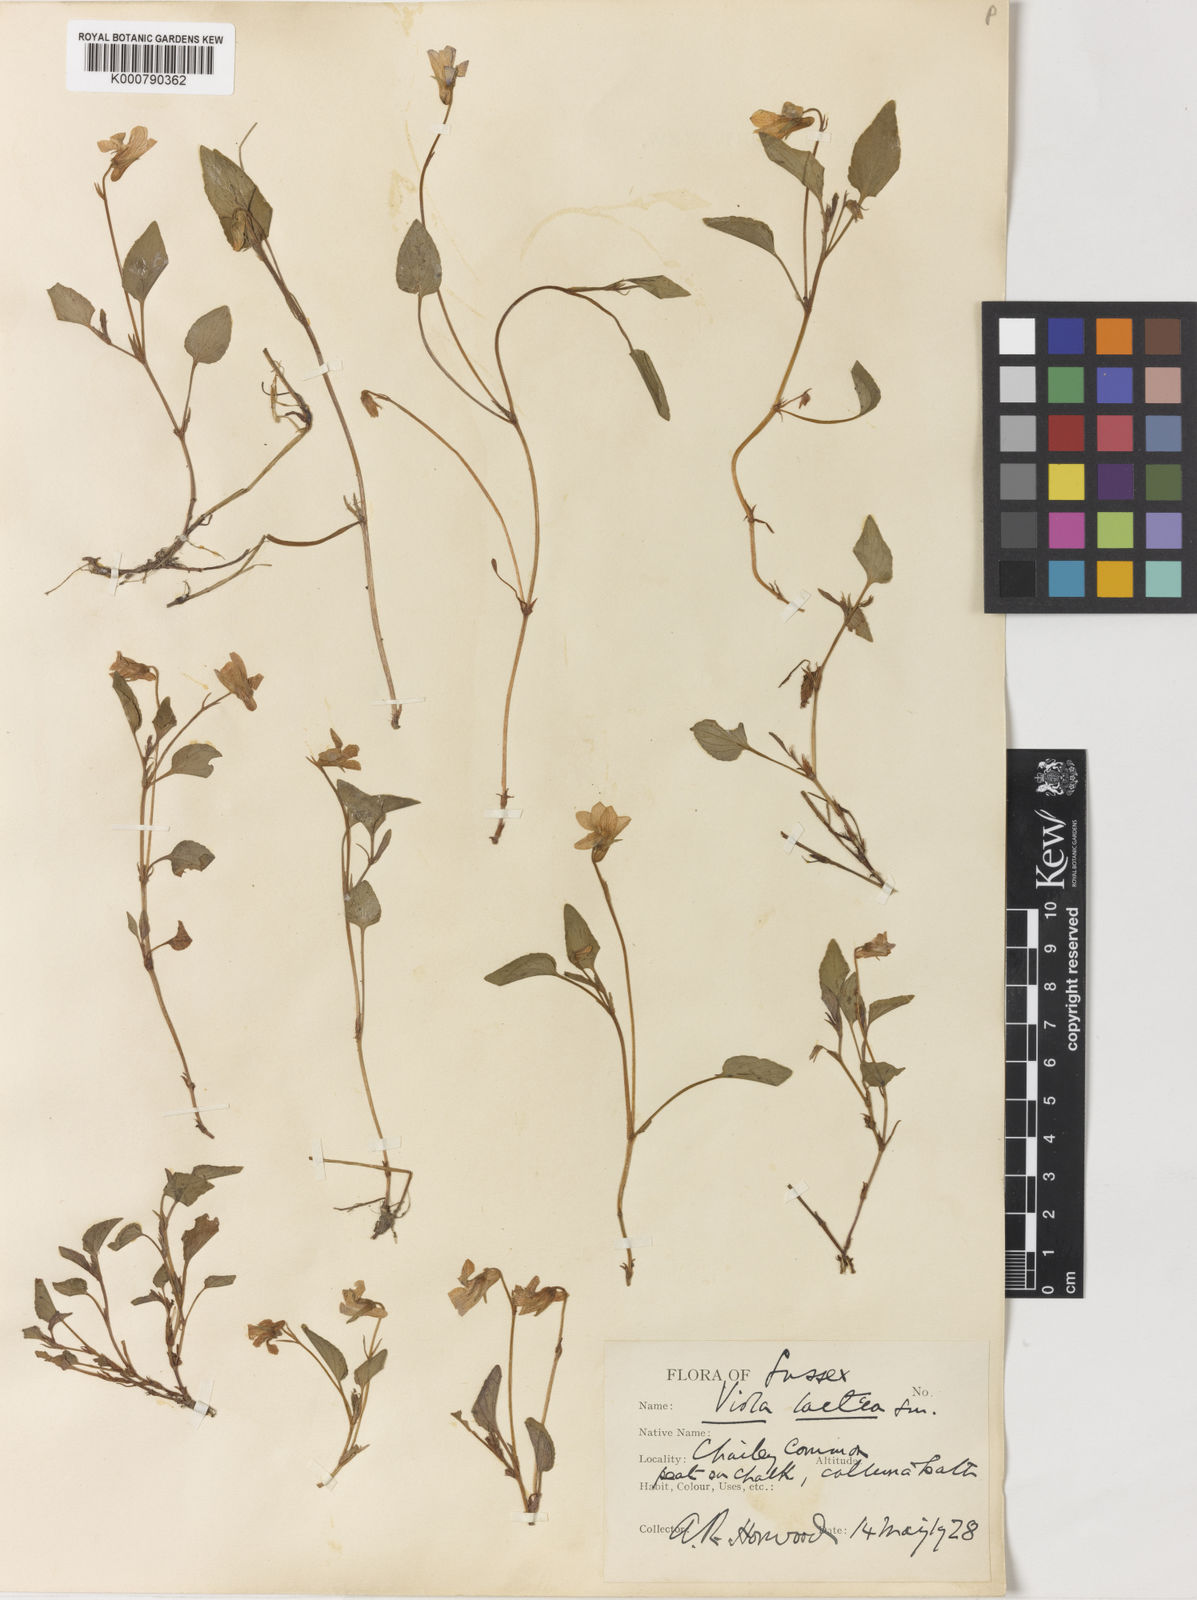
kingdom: Plantae
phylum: Tracheophyta
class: Magnoliopsida
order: Malpighiales
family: Violaceae
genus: Viola
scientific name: Viola lactea
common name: Pale dog-violet
